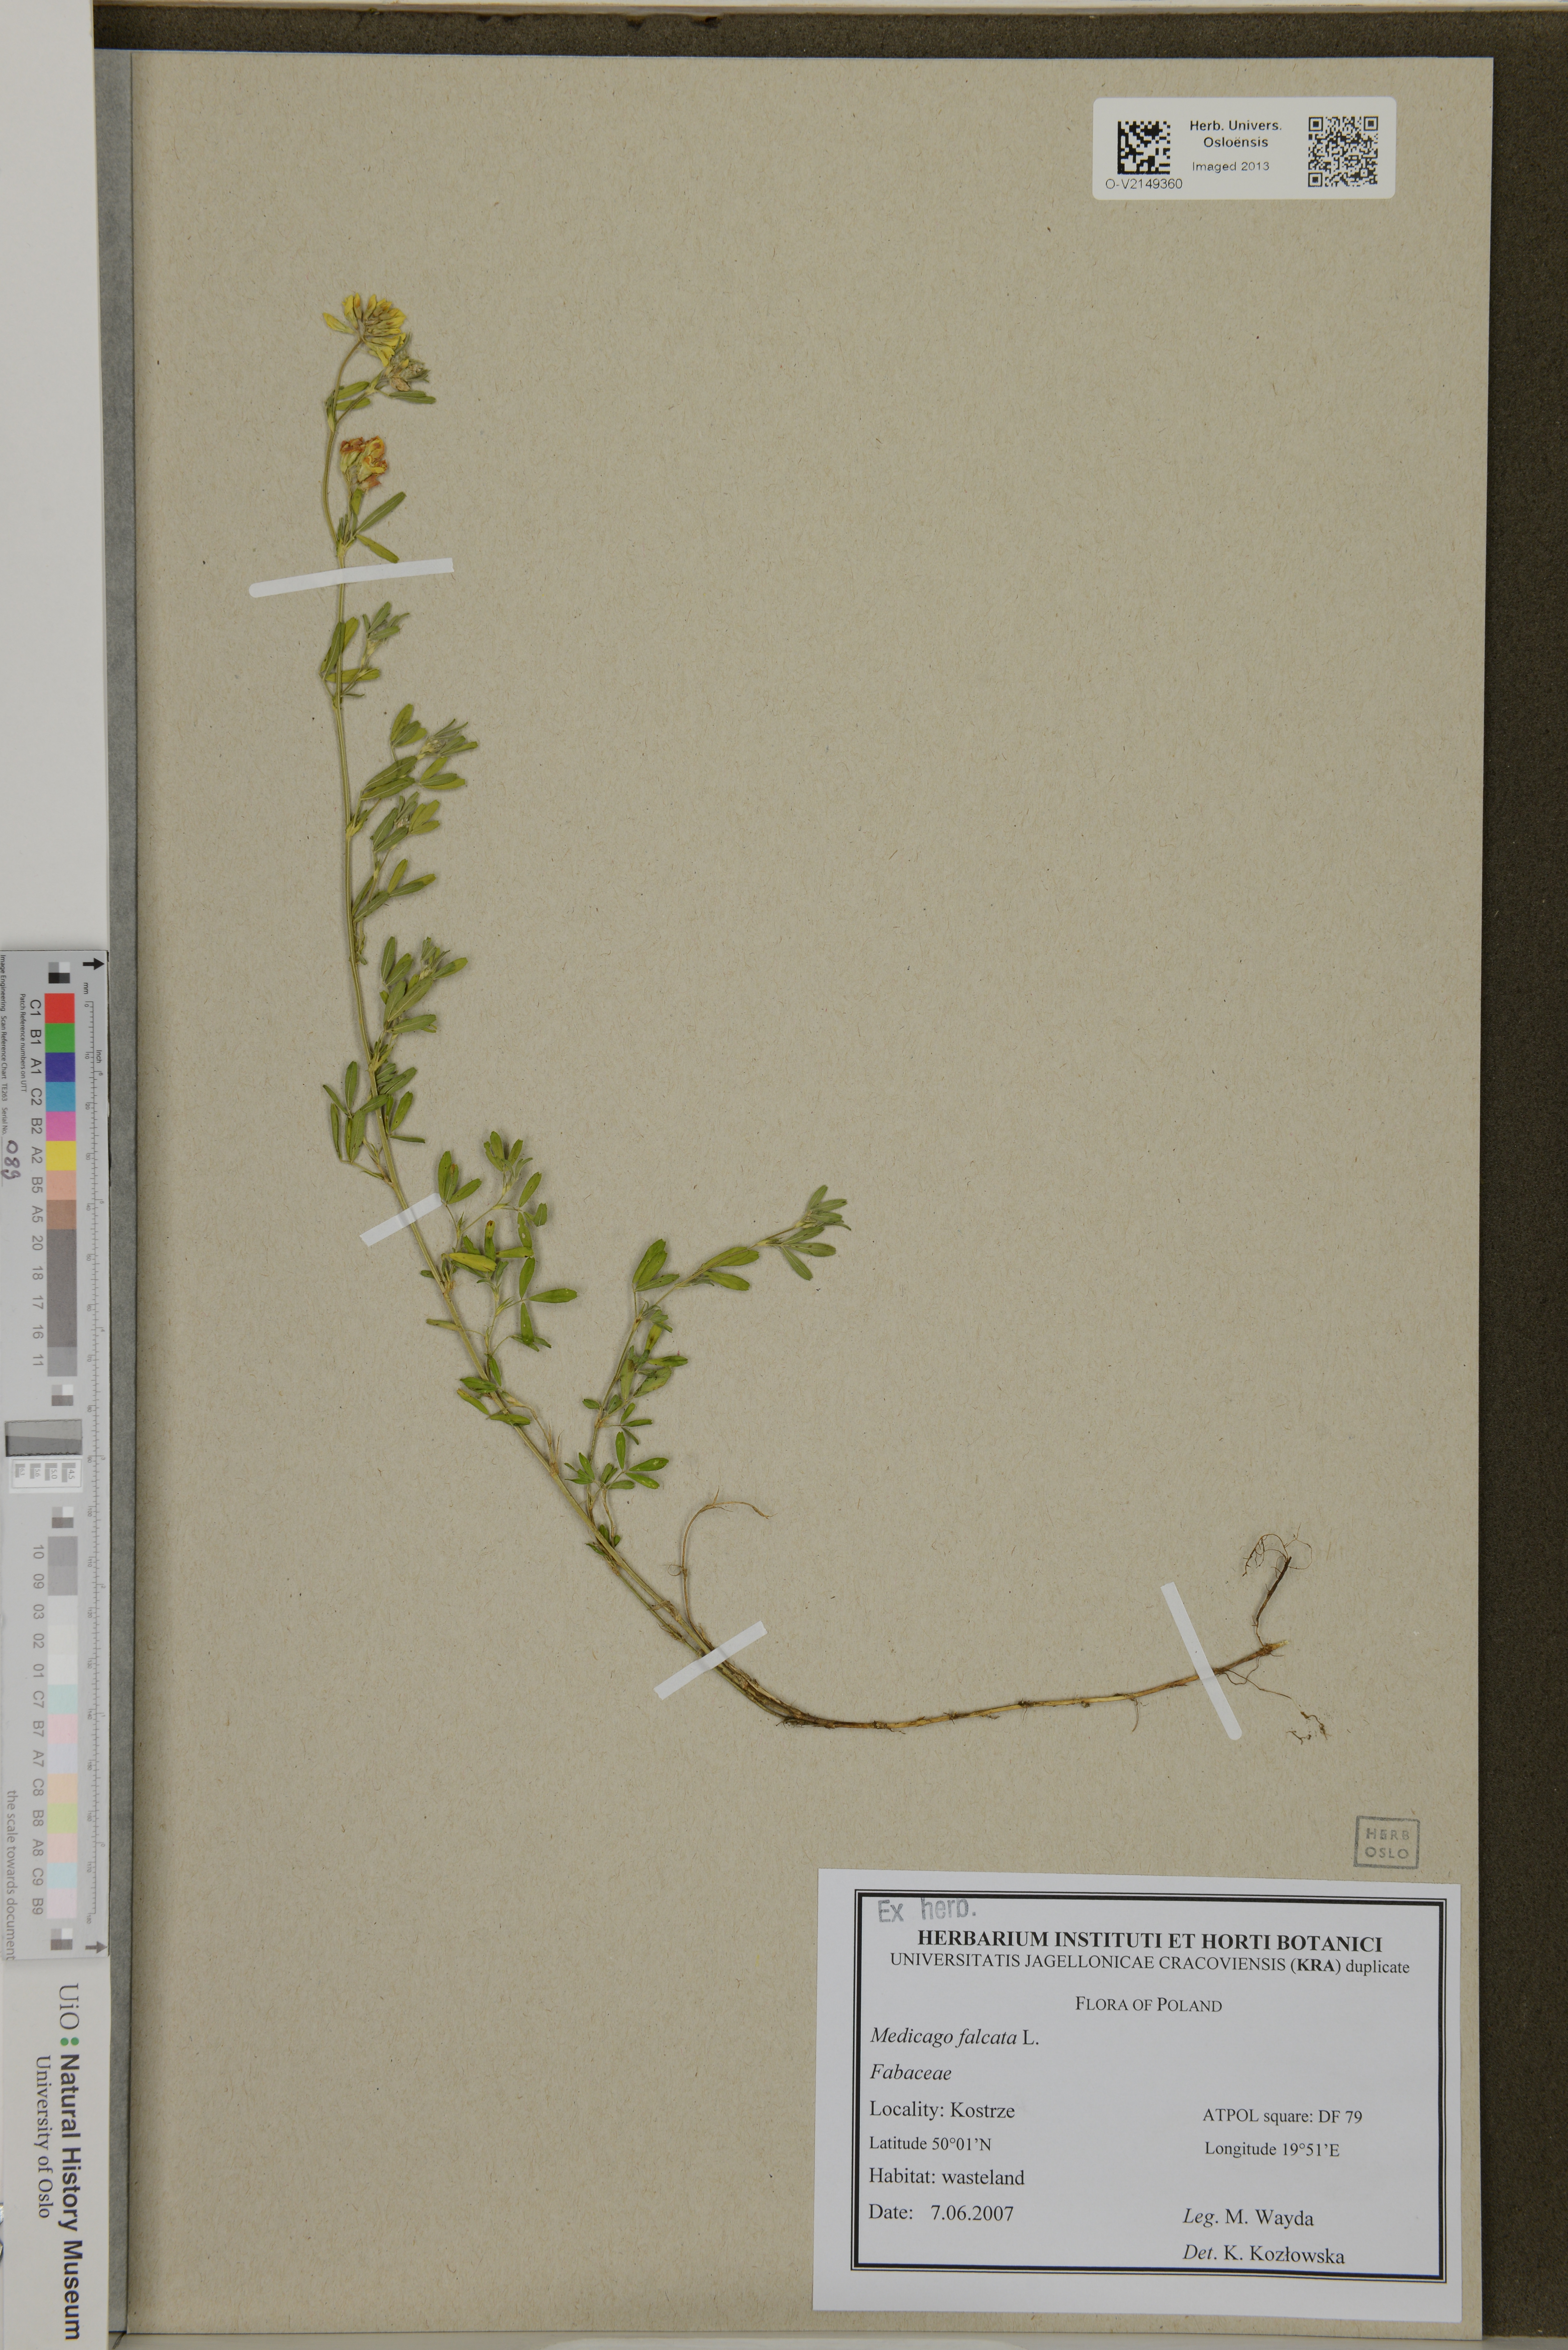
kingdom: Plantae
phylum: Tracheophyta
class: Magnoliopsida
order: Fabales
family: Fabaceae
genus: Medicago
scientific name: Medicago falcata
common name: Sickle medick
